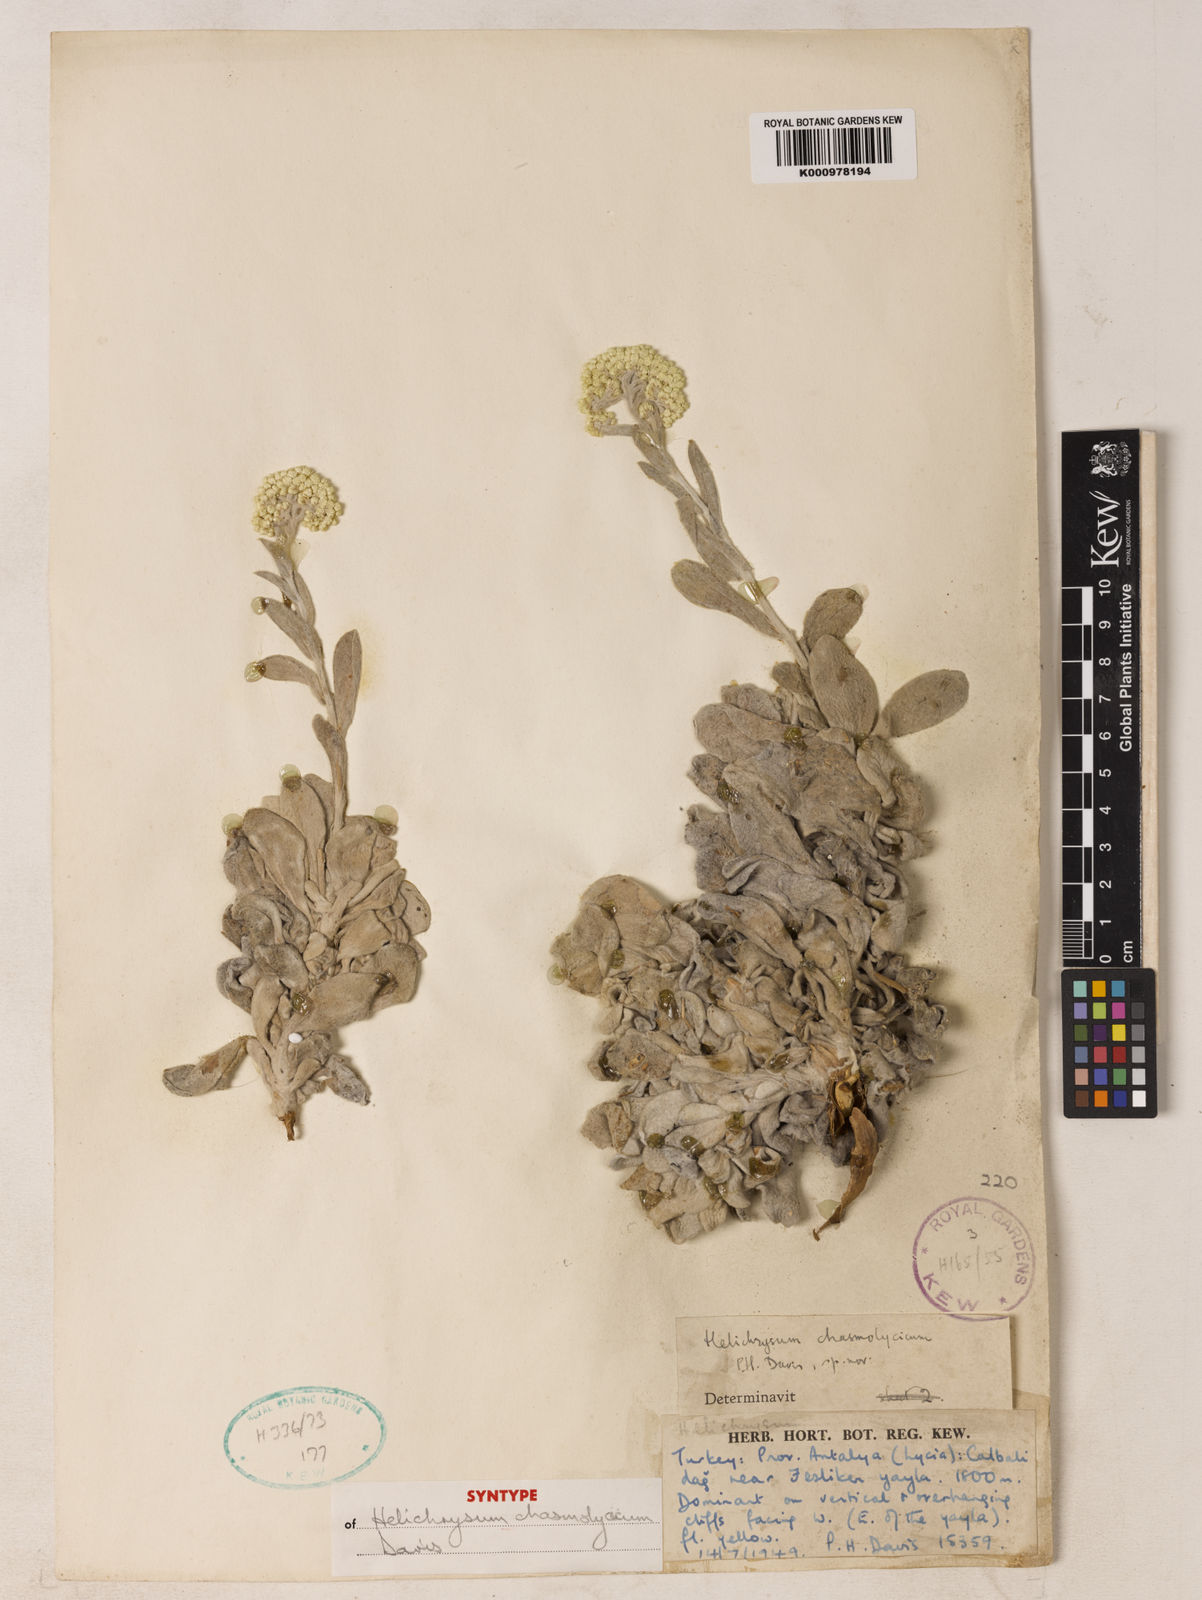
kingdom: Plantae
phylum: Tracheophyta
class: Magnoliopsida
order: Asterales
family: Asteraceae
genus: Helichrysum
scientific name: Helichrysum
